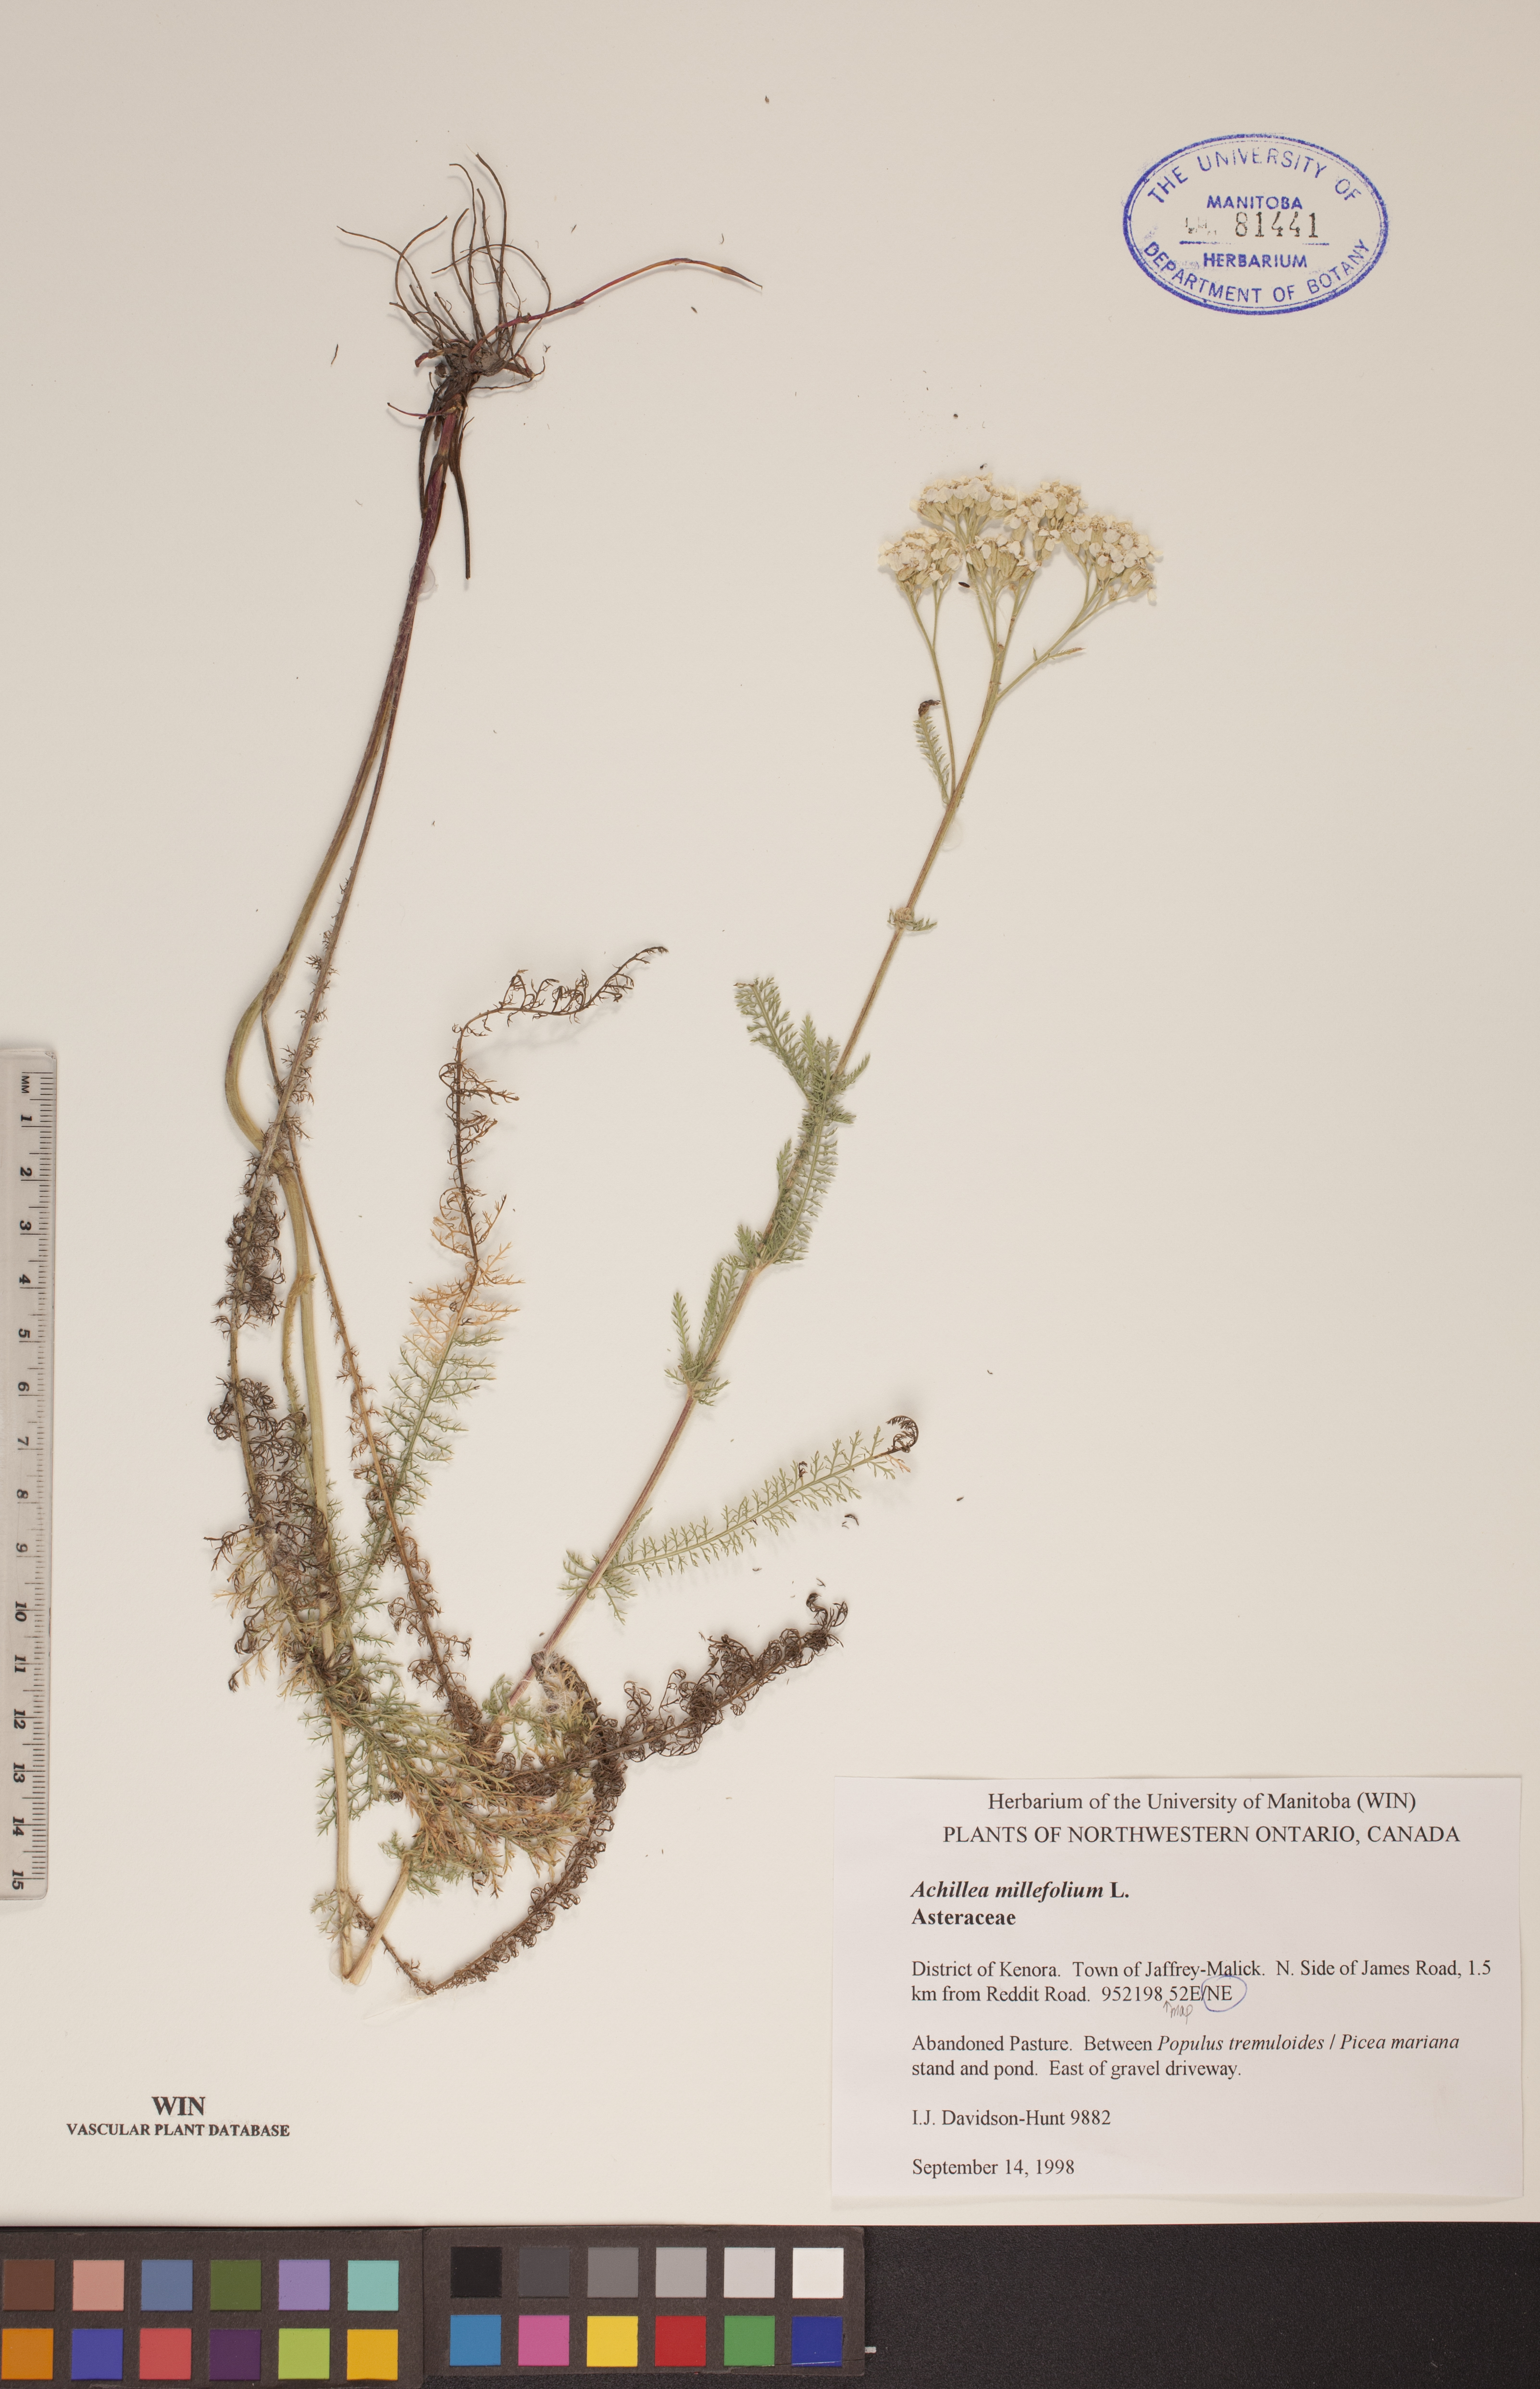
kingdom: Plantae
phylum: Tracheophyta
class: Magnoliopsida
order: Asterales
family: Asteraceae
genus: Achillea
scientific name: Achillea millefolium
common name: Yarrow
